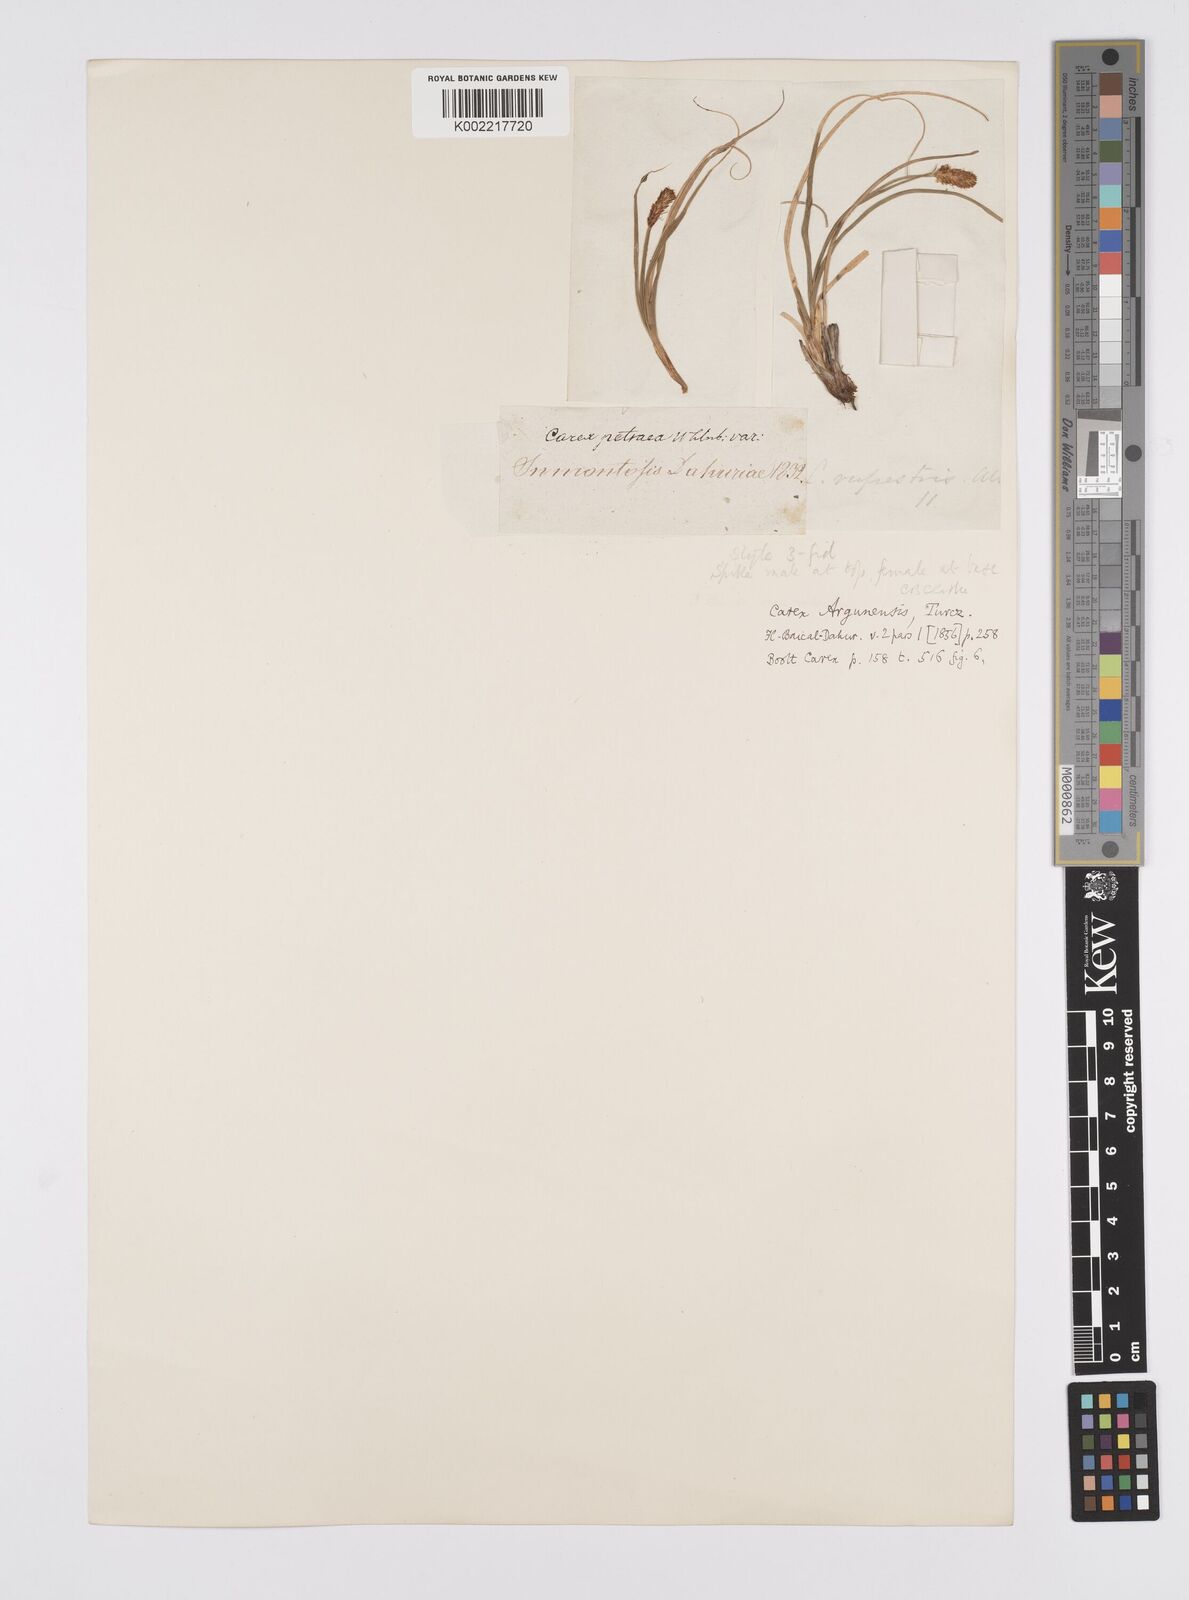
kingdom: Plantae
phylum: Tracheophyta
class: Liliopsida
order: Poales
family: Cyperaceae
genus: Carex
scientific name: Carex argunensis
